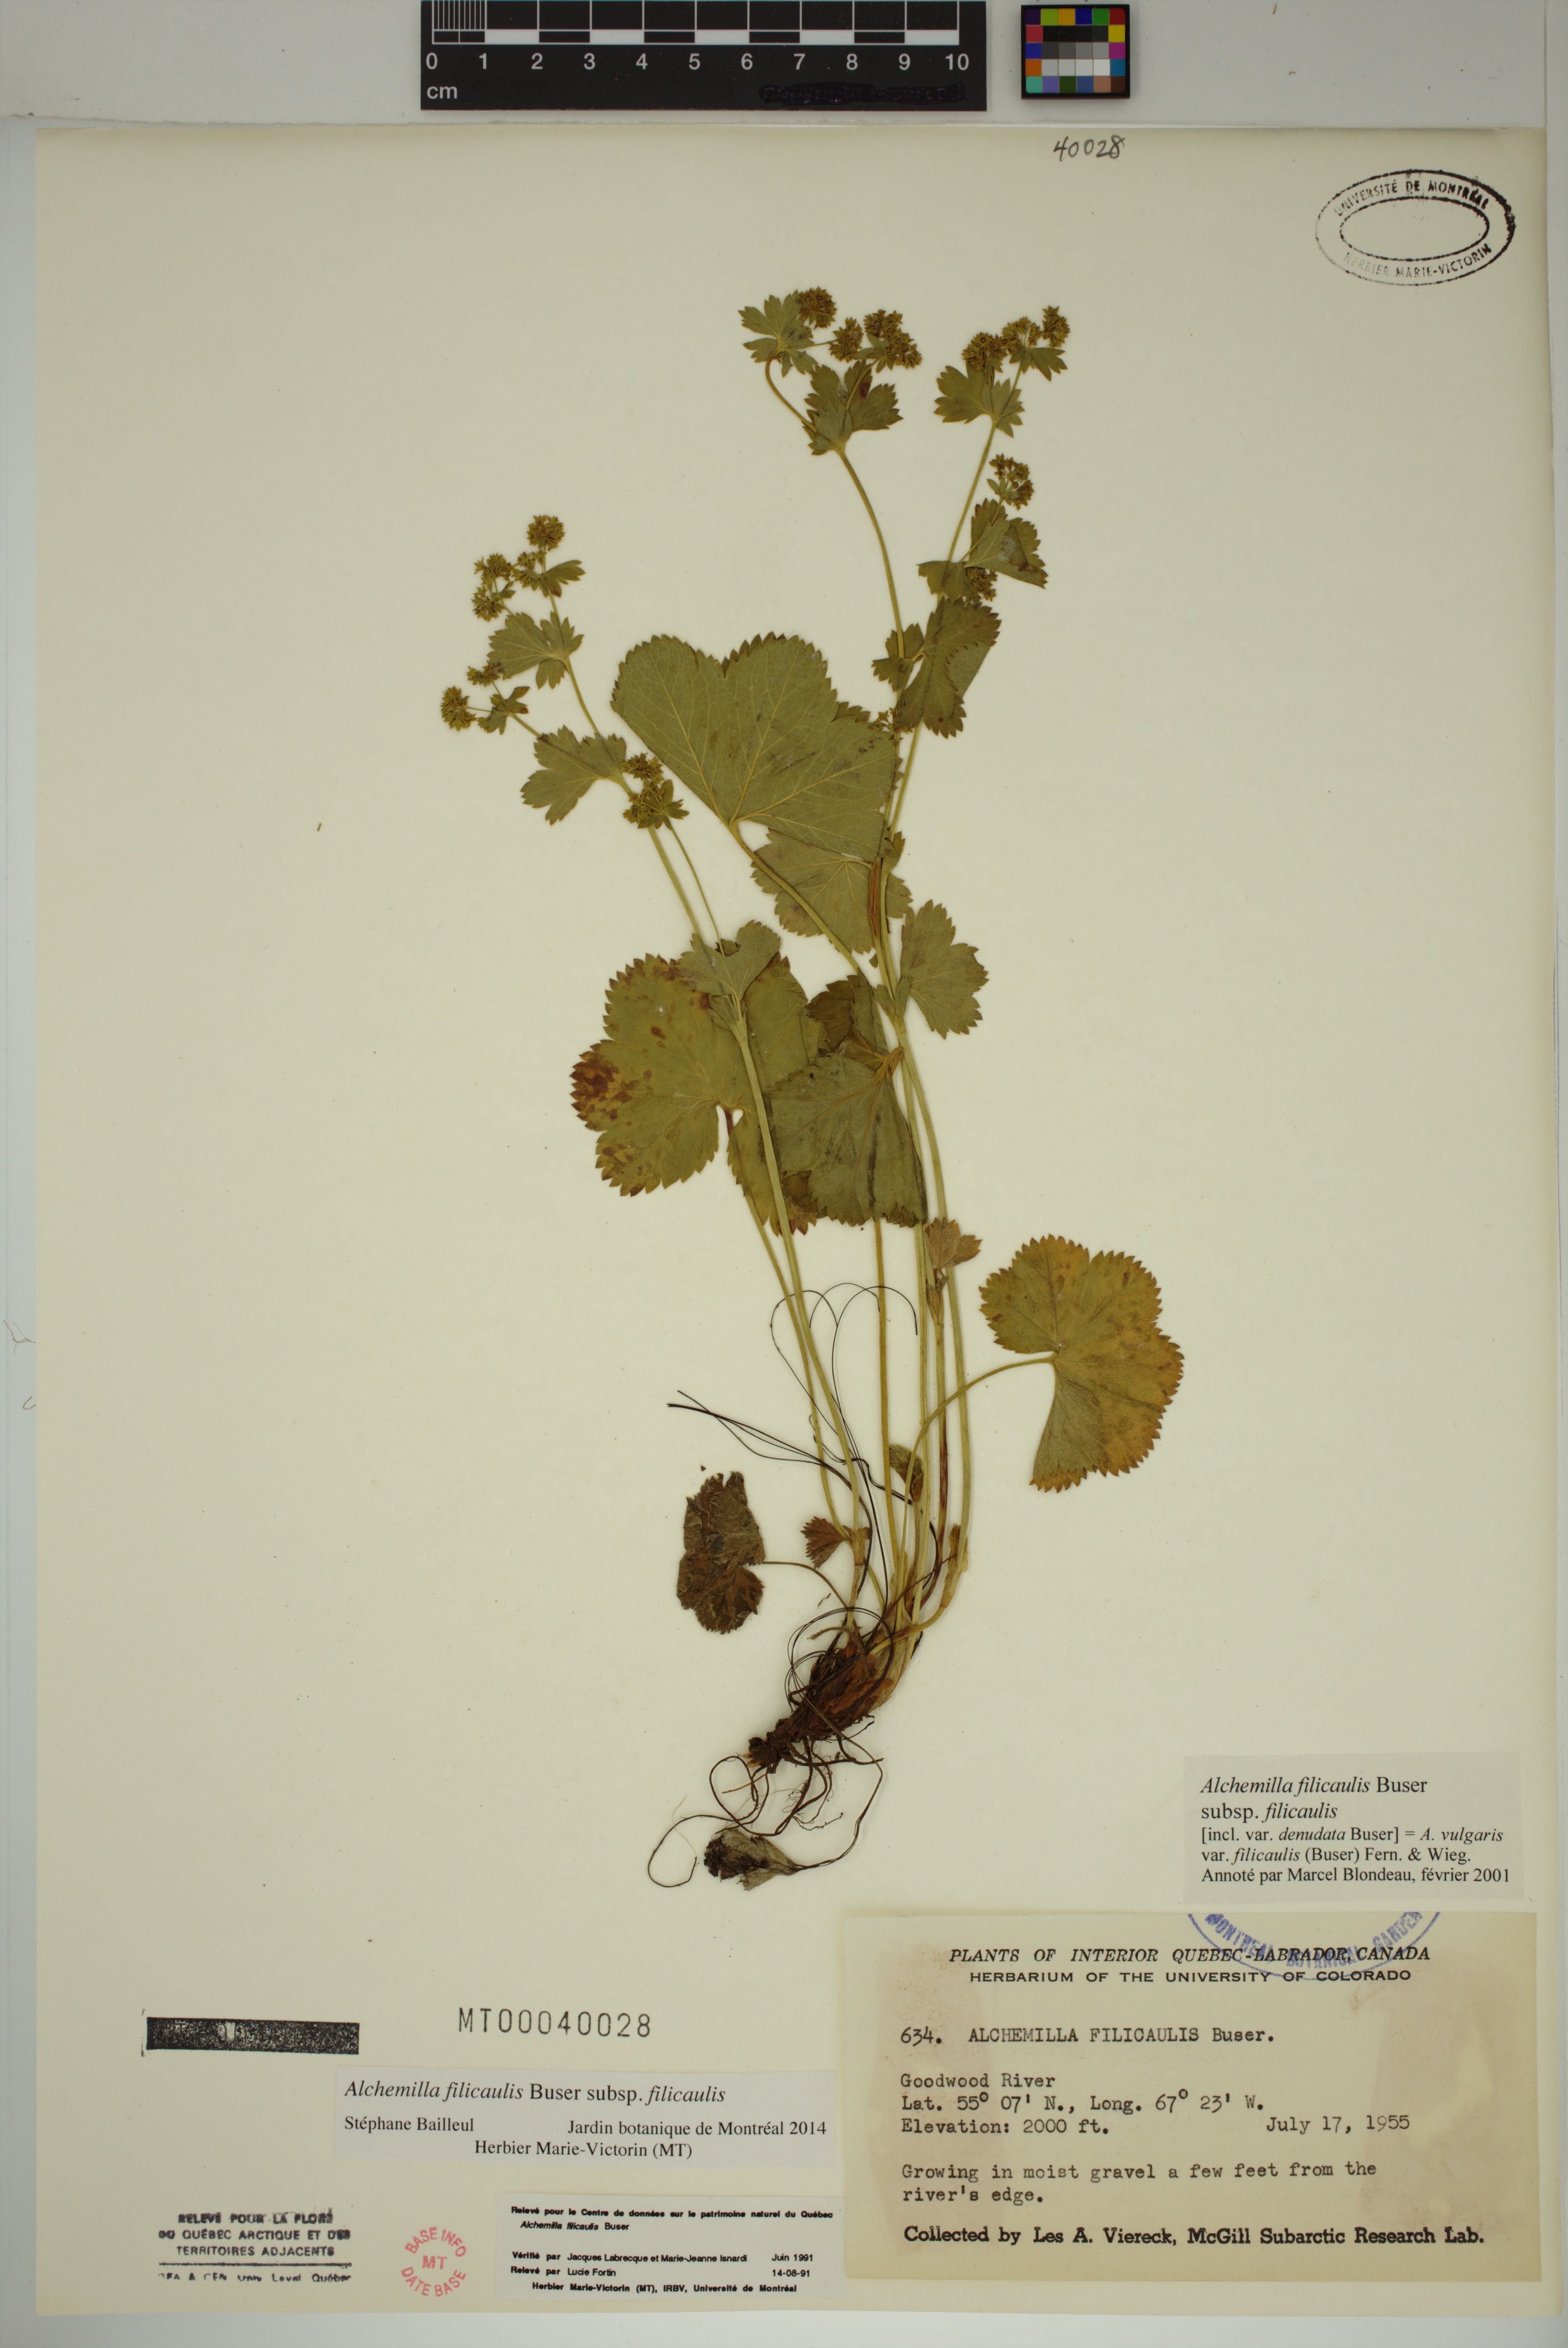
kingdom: Plantae
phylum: Tracheophyta
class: Magnoliopsida
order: Rosales
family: Rosaceae
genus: Alchemilla
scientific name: Alchemilla vulgaris
